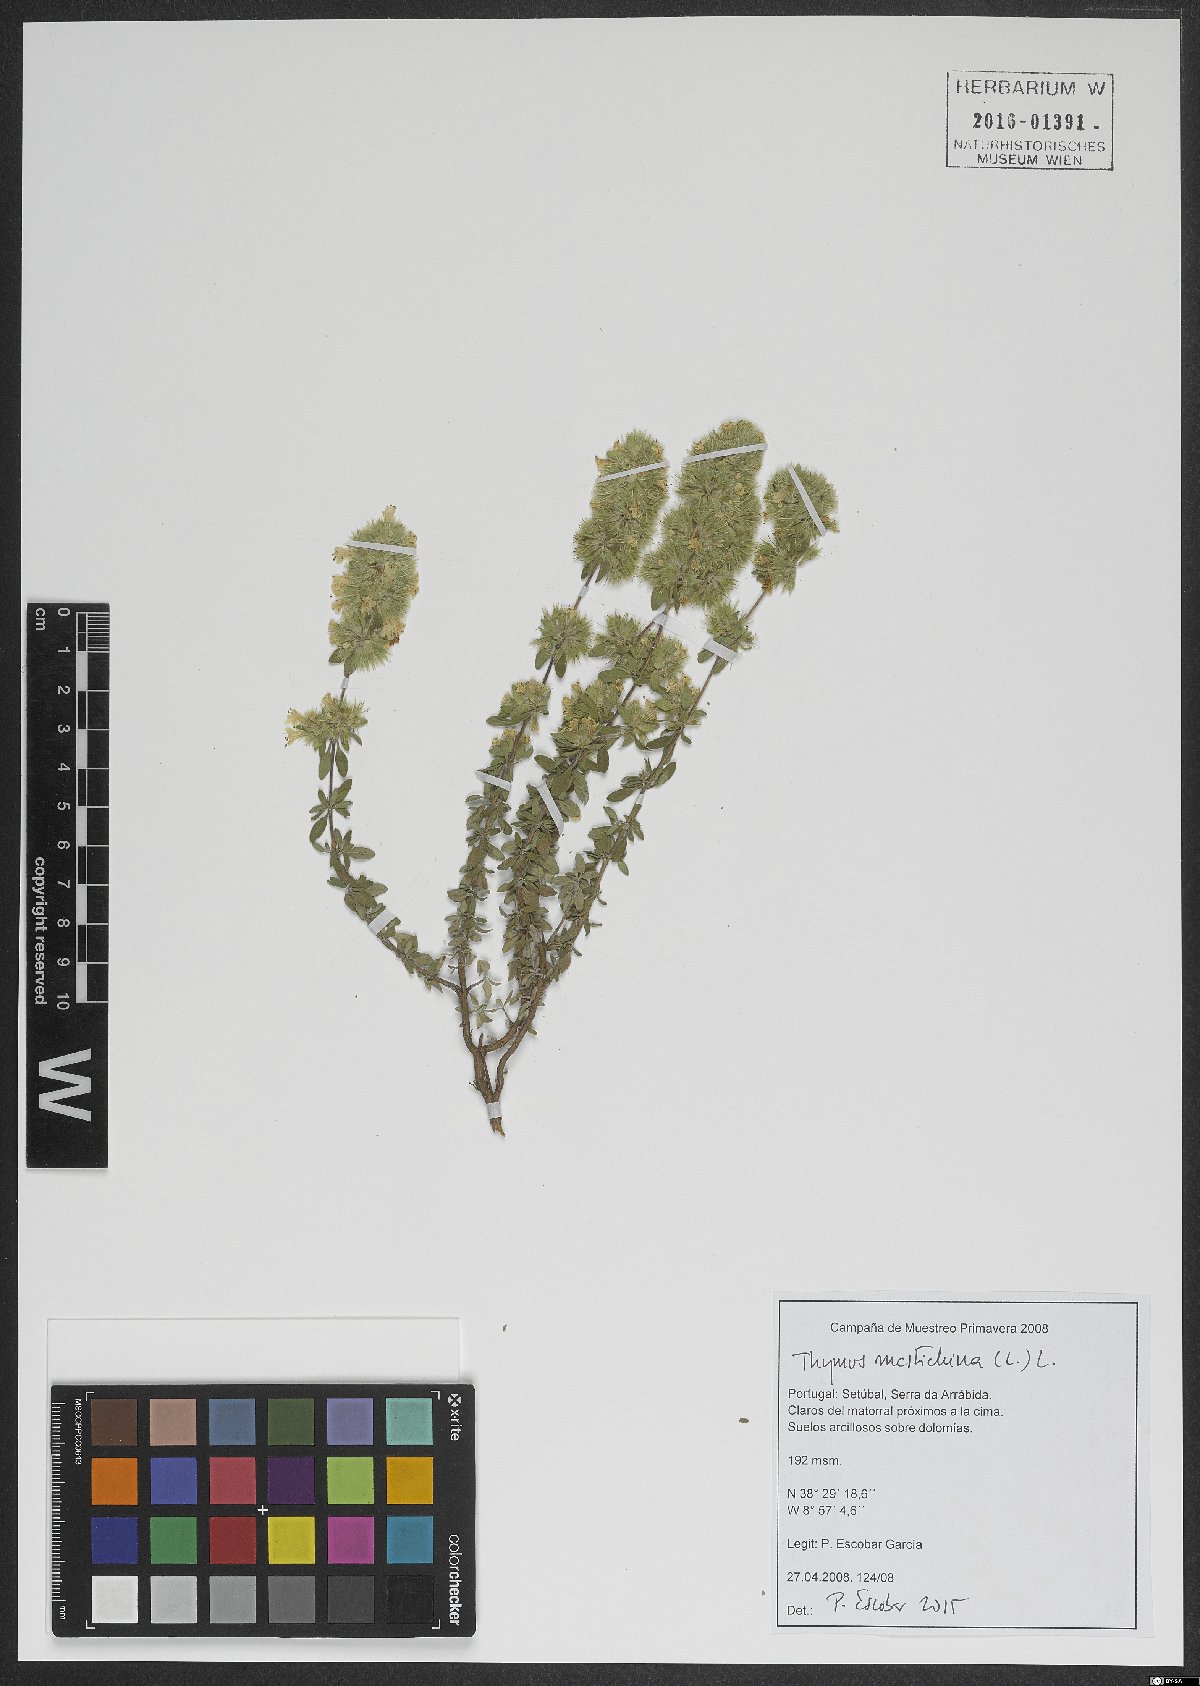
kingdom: Plantae
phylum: Tracheophyta
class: Magnoliopsida
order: Lamiales
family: Lamiaceae
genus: Thymus
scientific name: Thymus mastichina
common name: Mastic thyme
